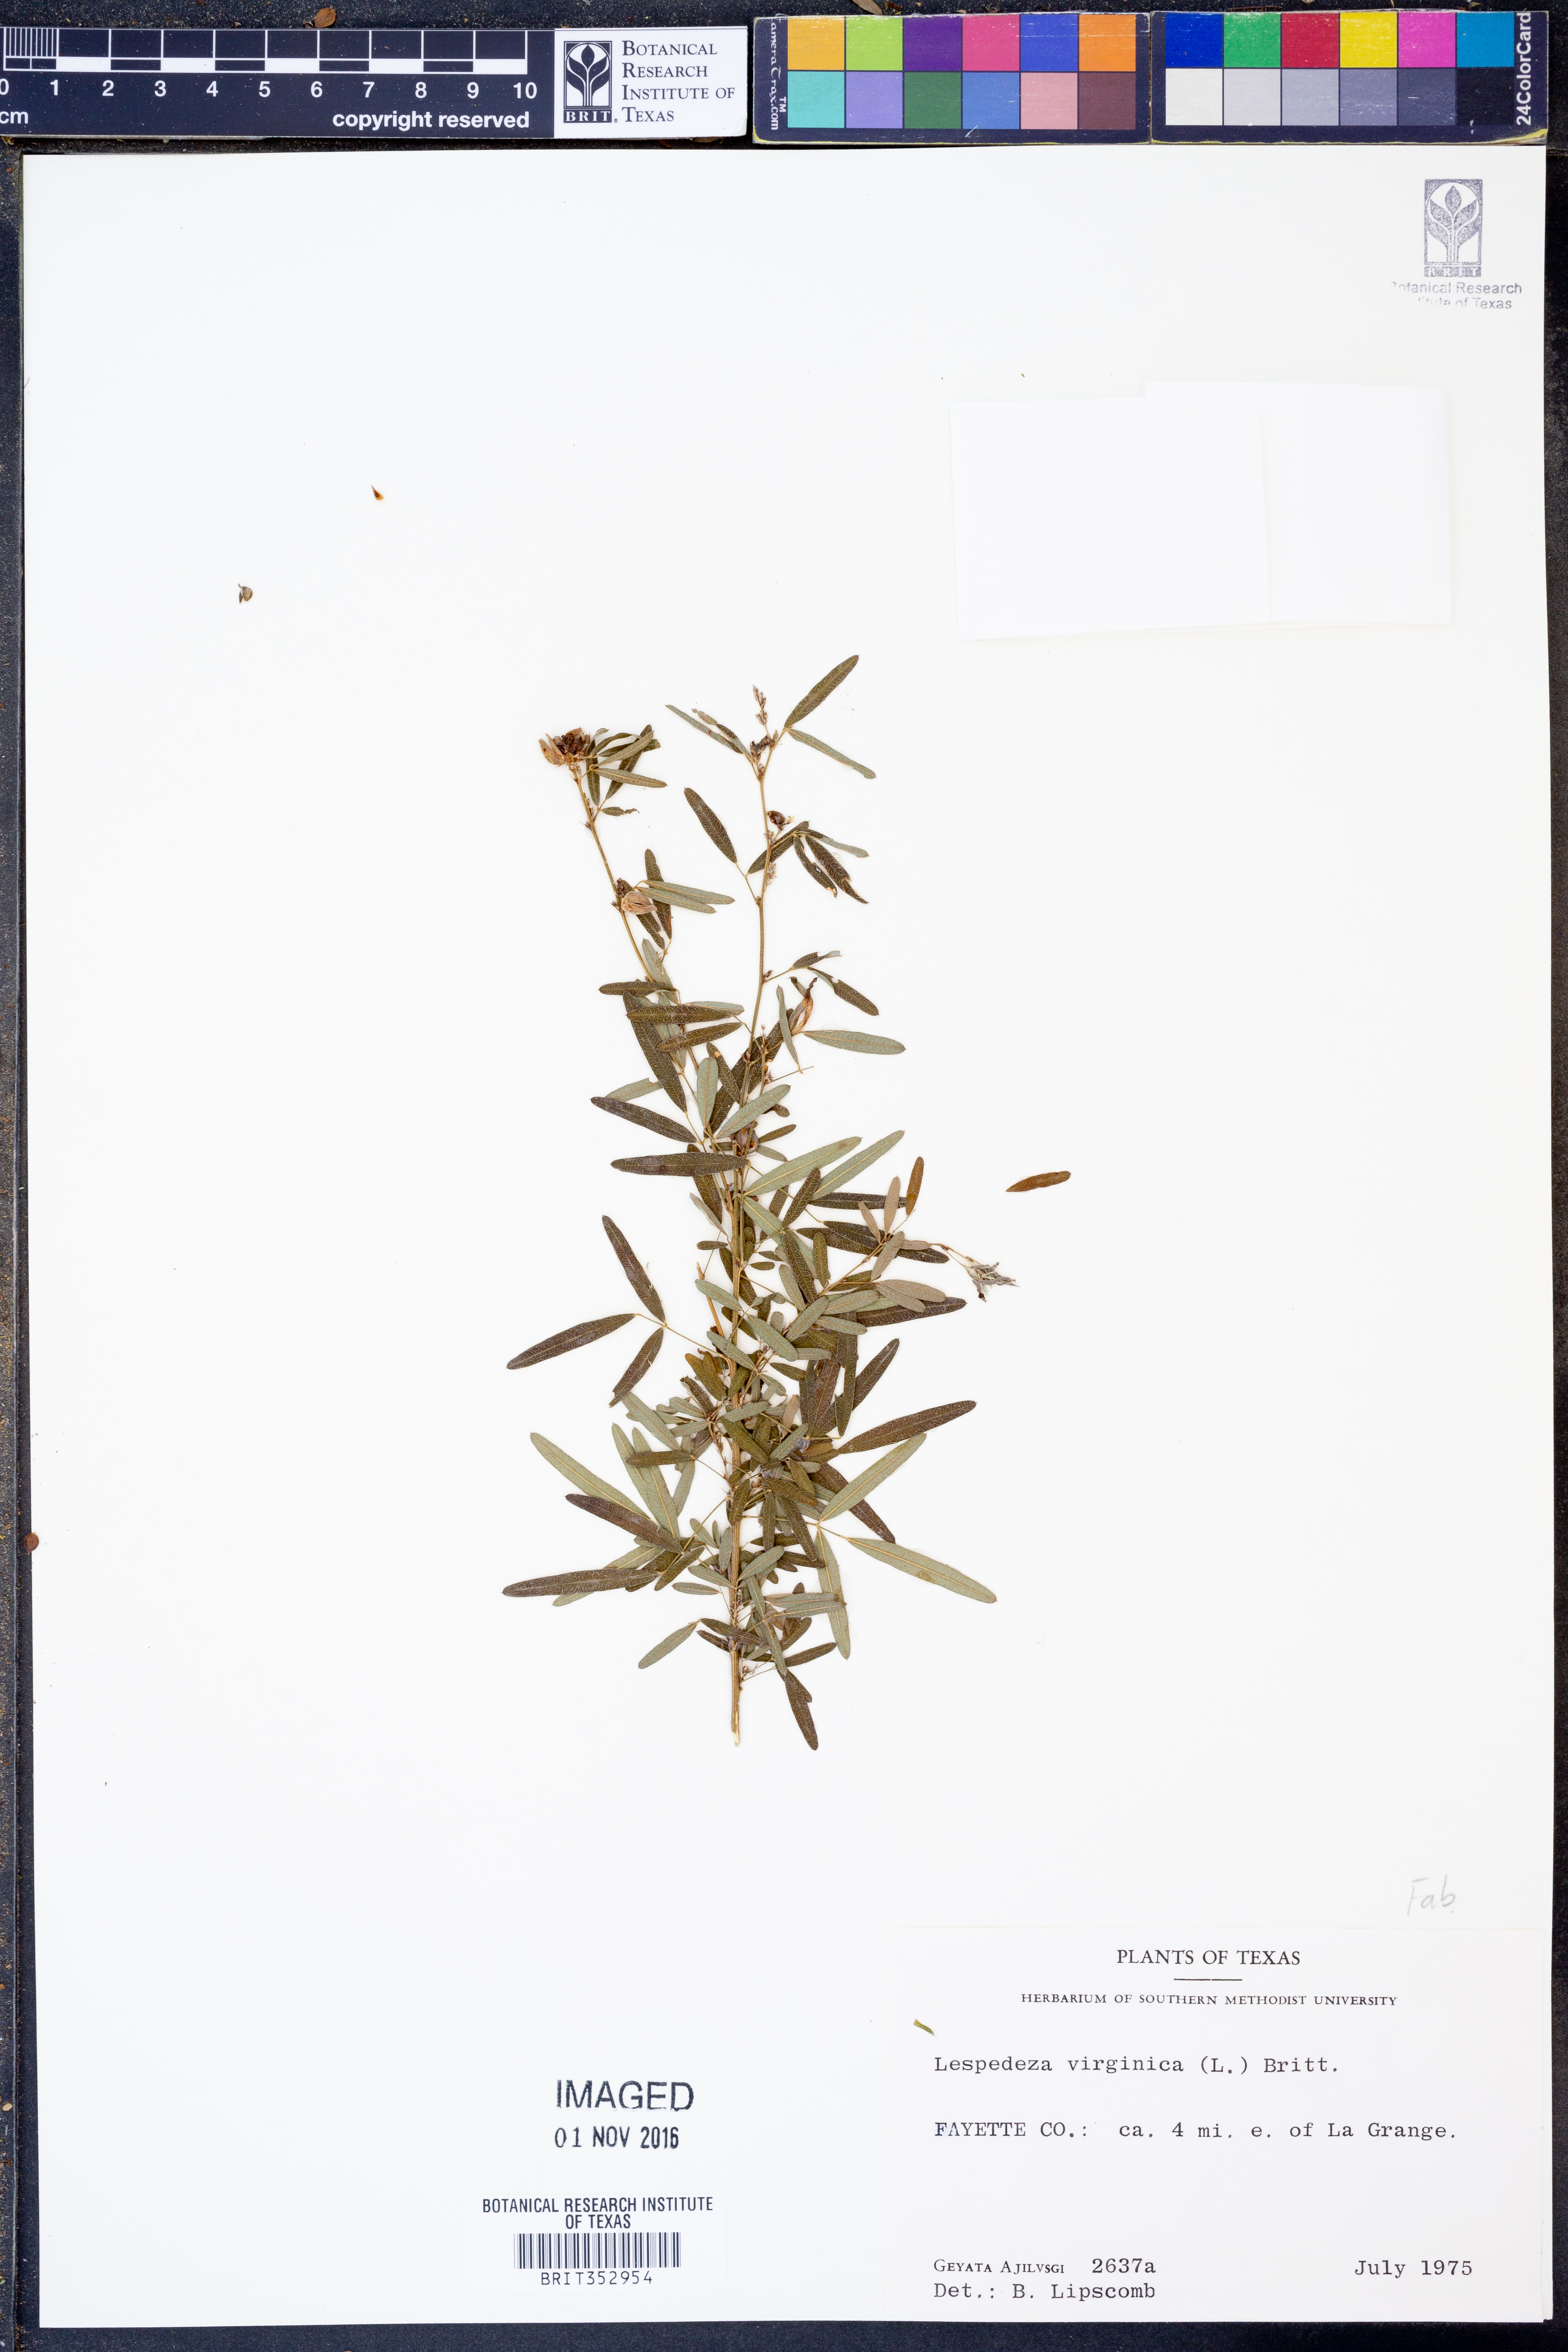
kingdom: Plantae
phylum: Tracheophyta
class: Magnoliopsida
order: Fabales
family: Fabaceae
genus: Lespedeza
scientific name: Lespedeza virginica
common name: Slender bush-clover
